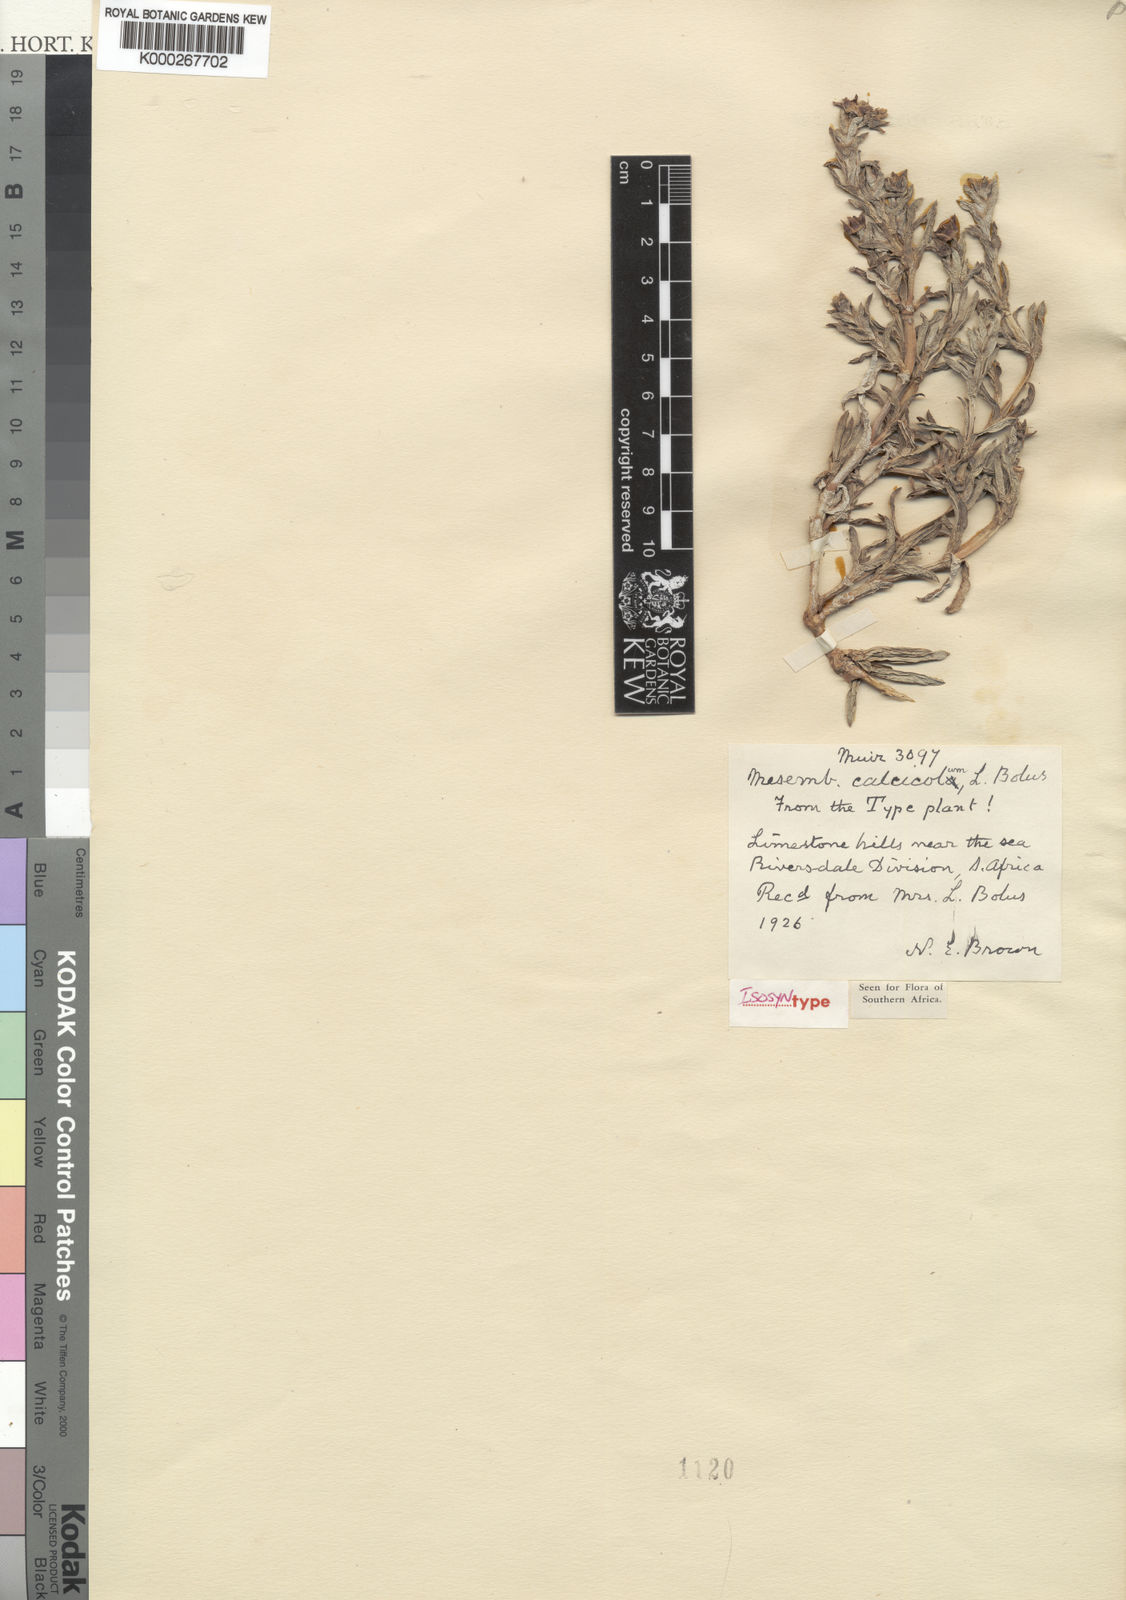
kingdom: Plantae
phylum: Tracheophyta
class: Magnoliopsida
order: Caryophyllales
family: Aizoaceae
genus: Ruschia
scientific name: Ruschia calcicola
